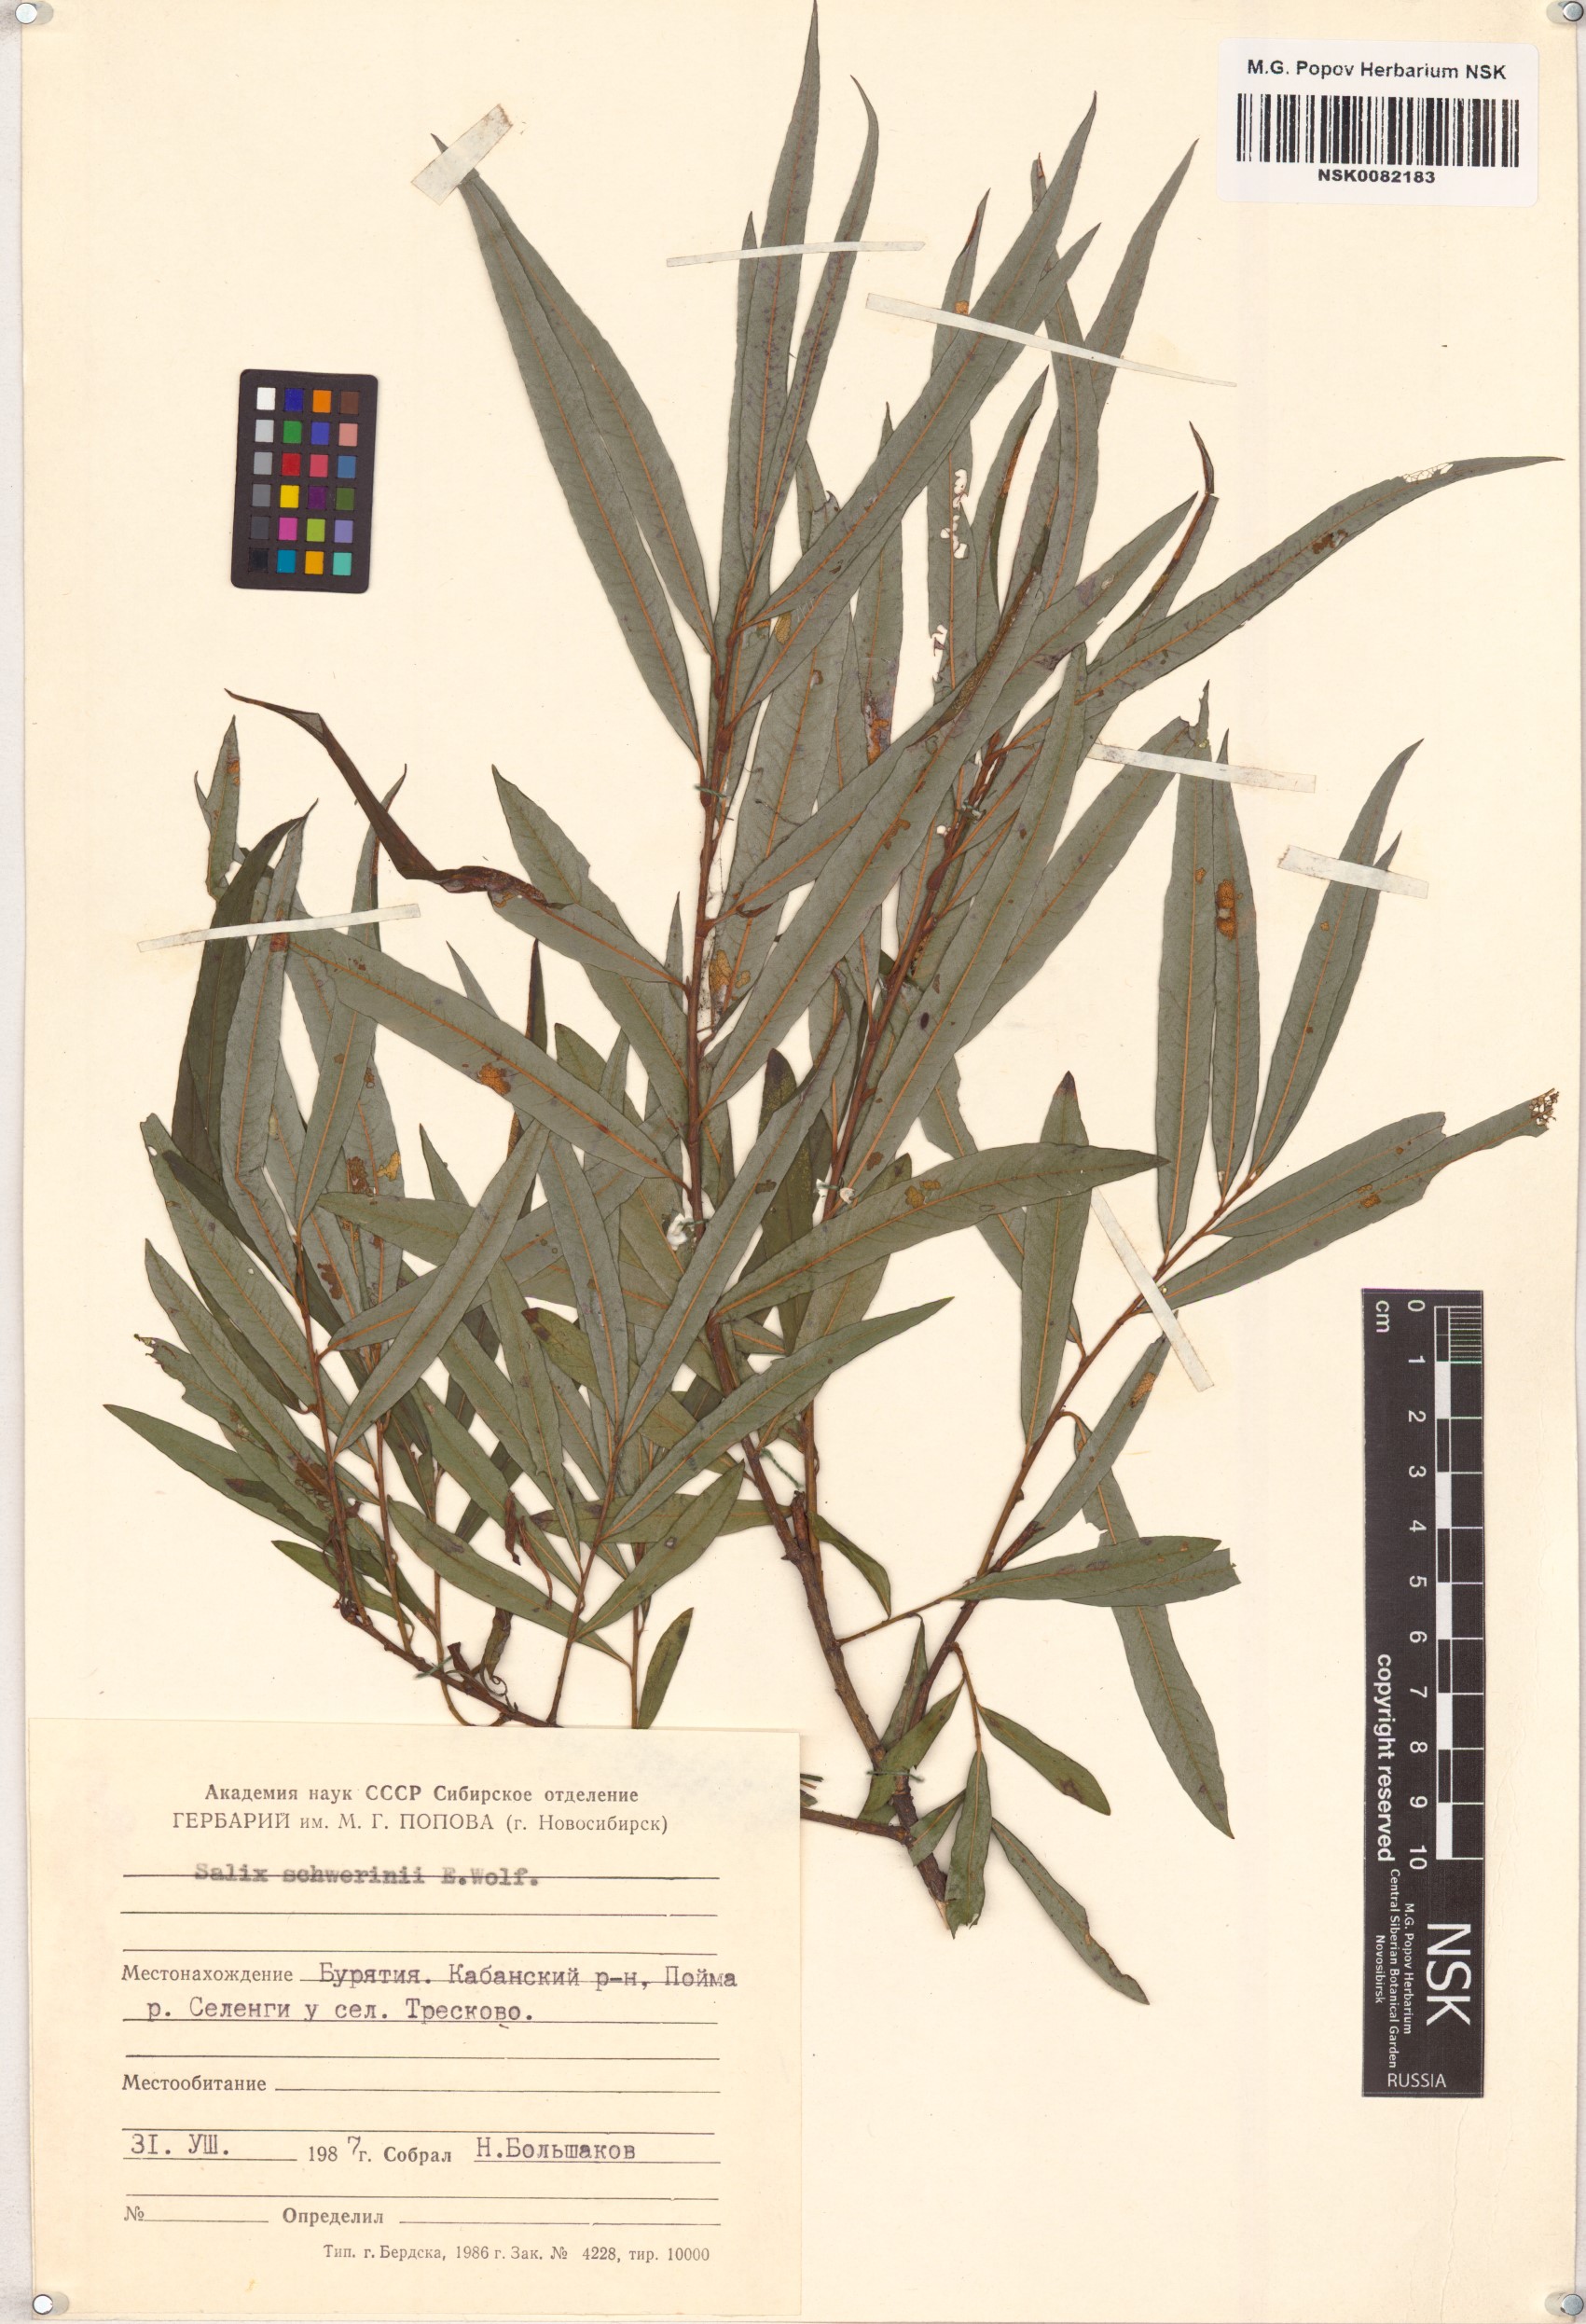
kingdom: Plantae
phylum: Tracheophyta
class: Magnoliopsida
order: Malpighiales
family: Salicaceae
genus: Salix
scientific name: Salix schwerinii
